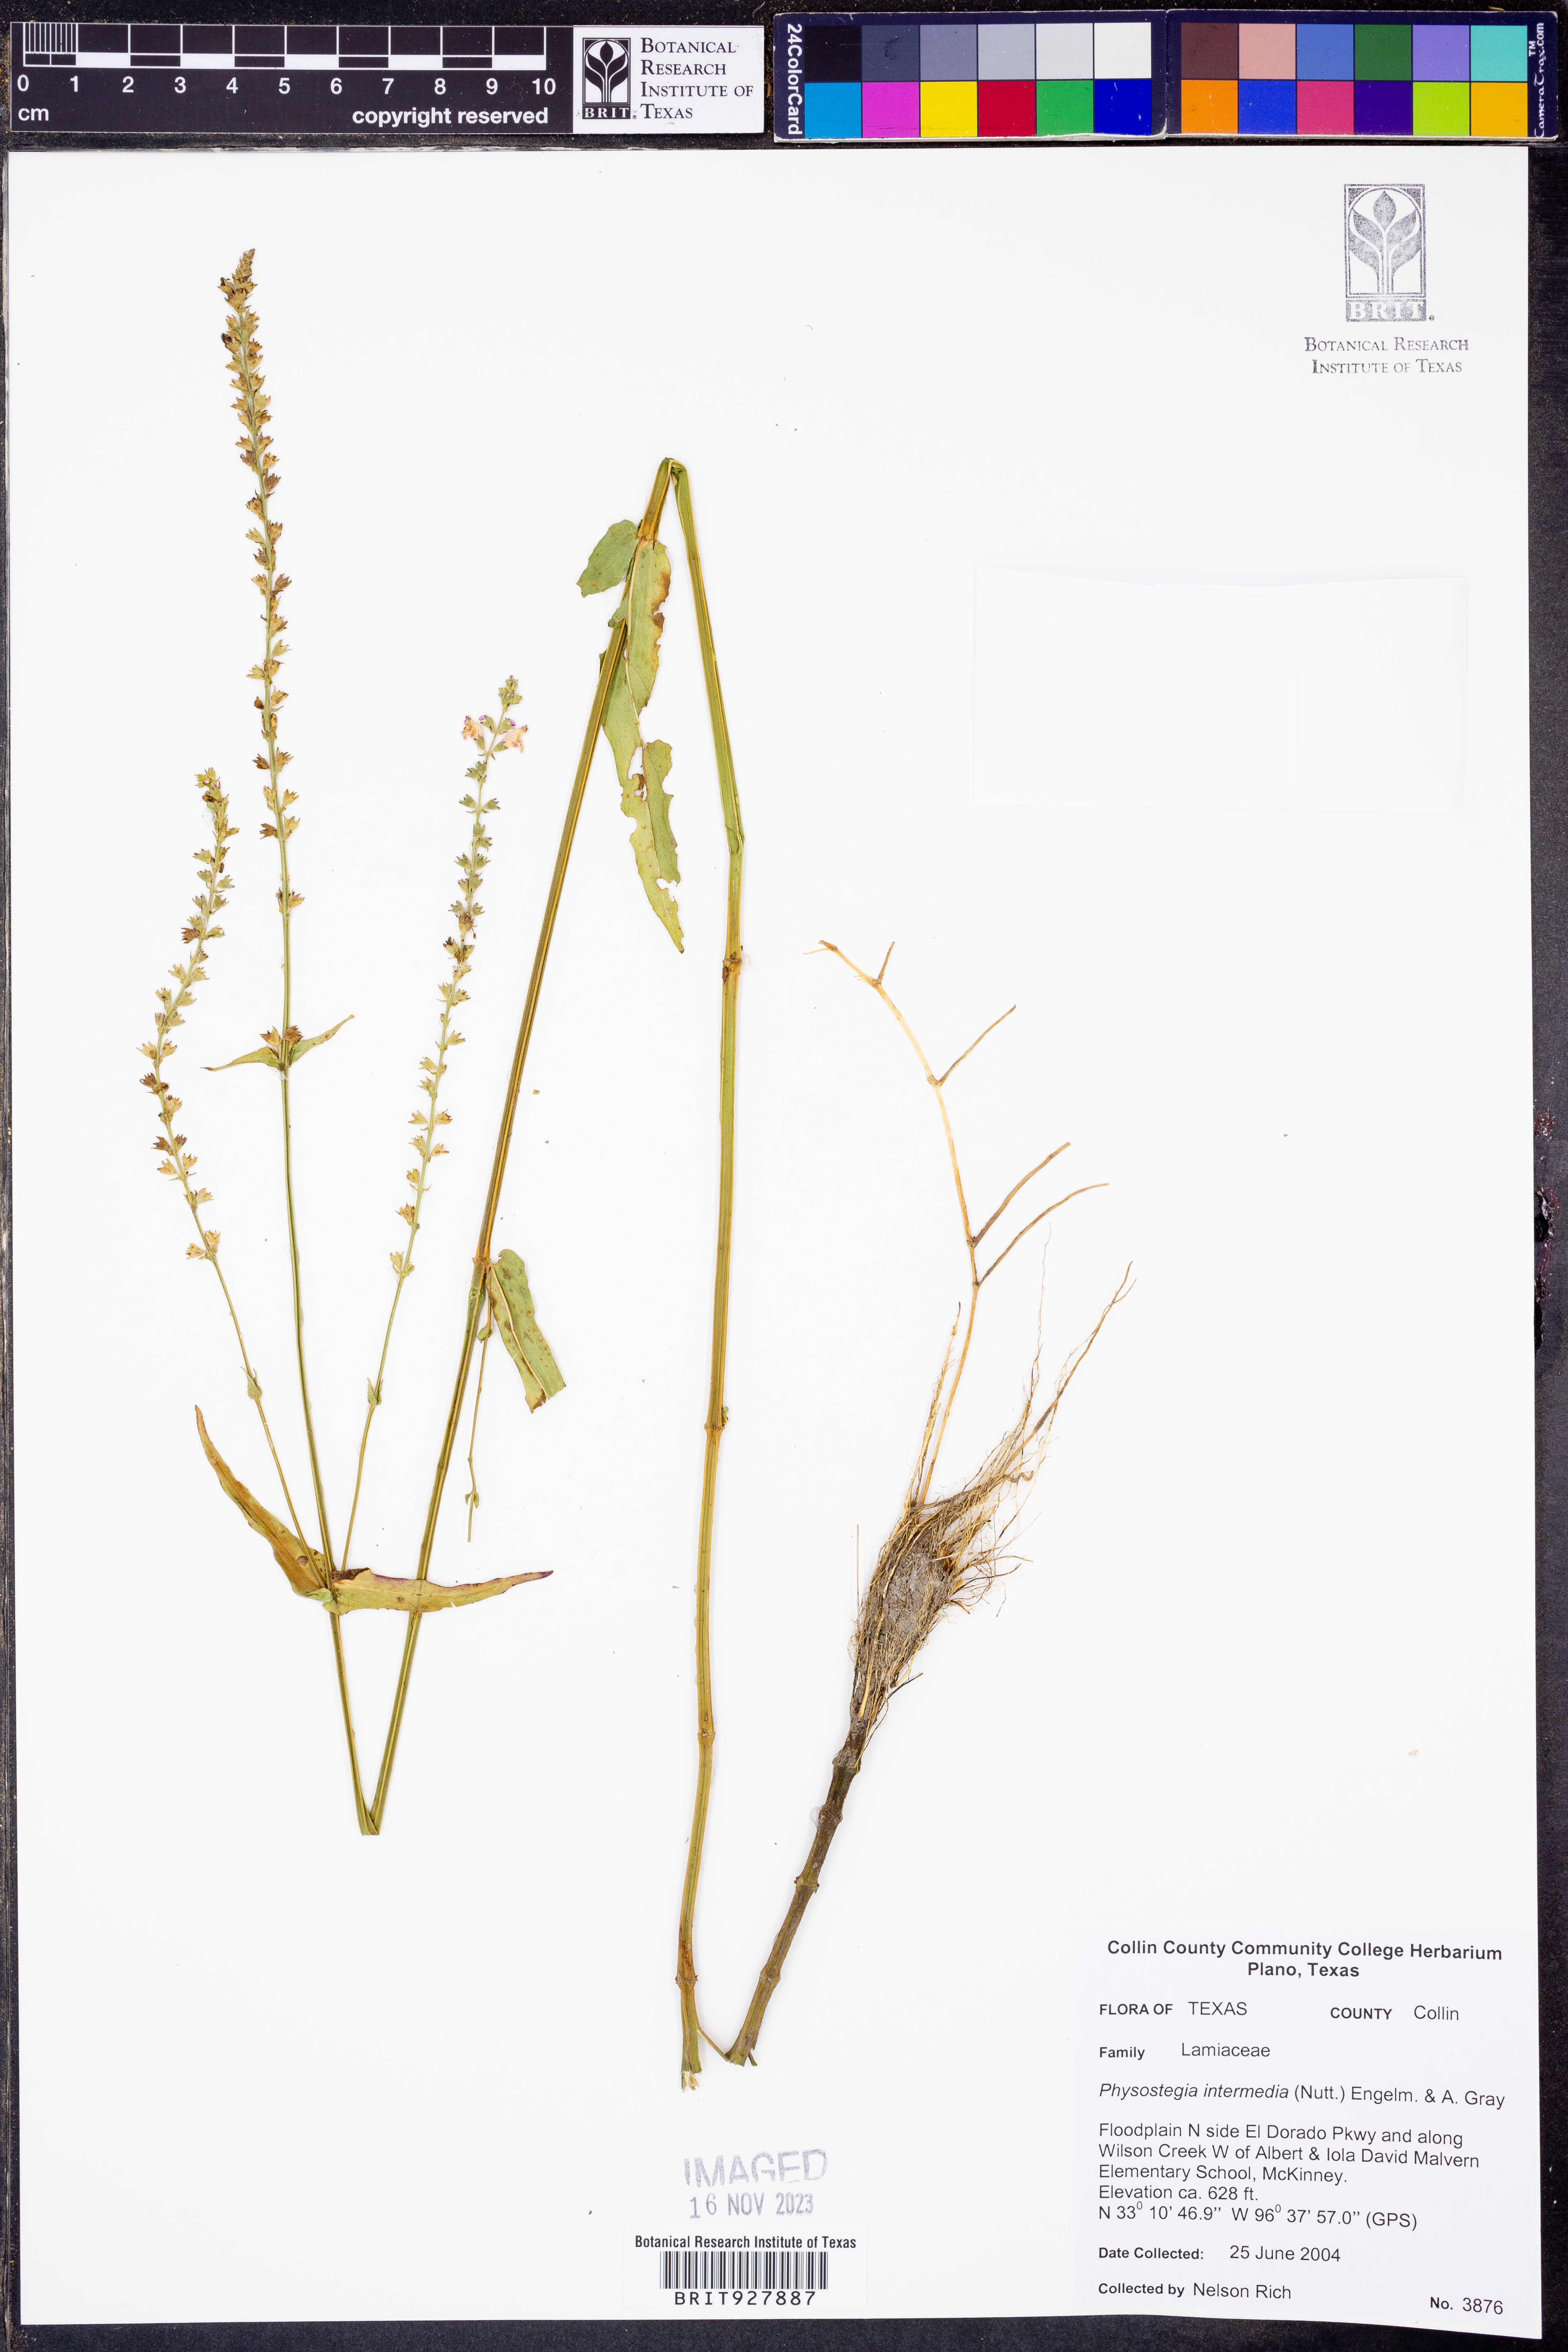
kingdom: Plantae
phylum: Tracheophyta
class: Magnoliopsida
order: Lamiales
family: Lamiaceae
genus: Physostegia
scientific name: Physostegia intermedia
